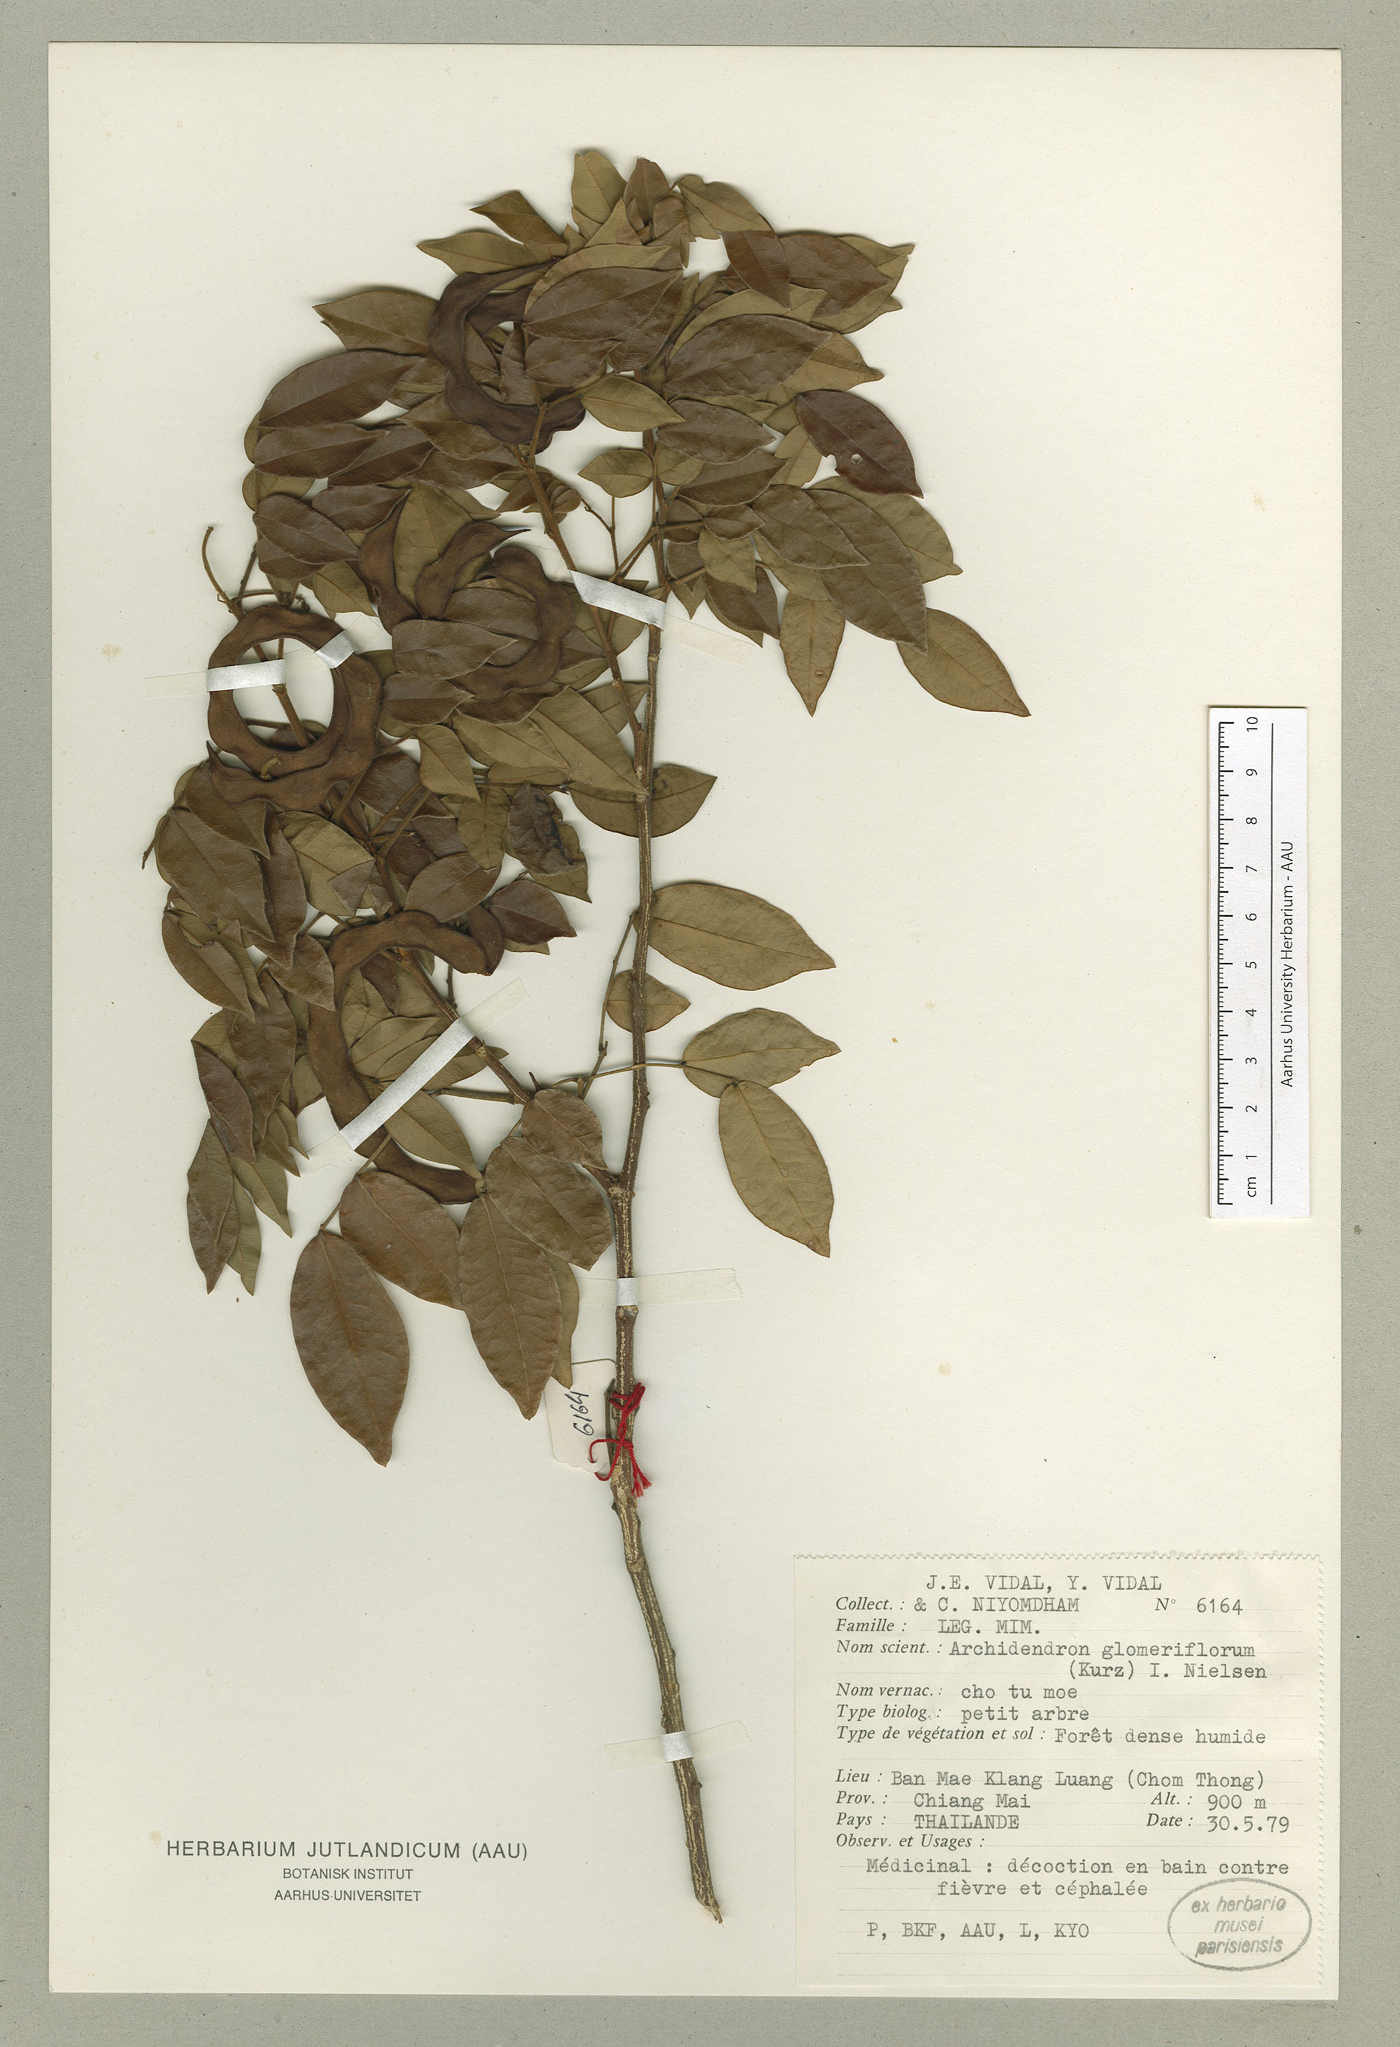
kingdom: Plantae
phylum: Tracheophyta
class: Magnoliopsida
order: Fabales
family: Fabaceae
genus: Archidendron
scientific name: Archidendron glomeriflorum
